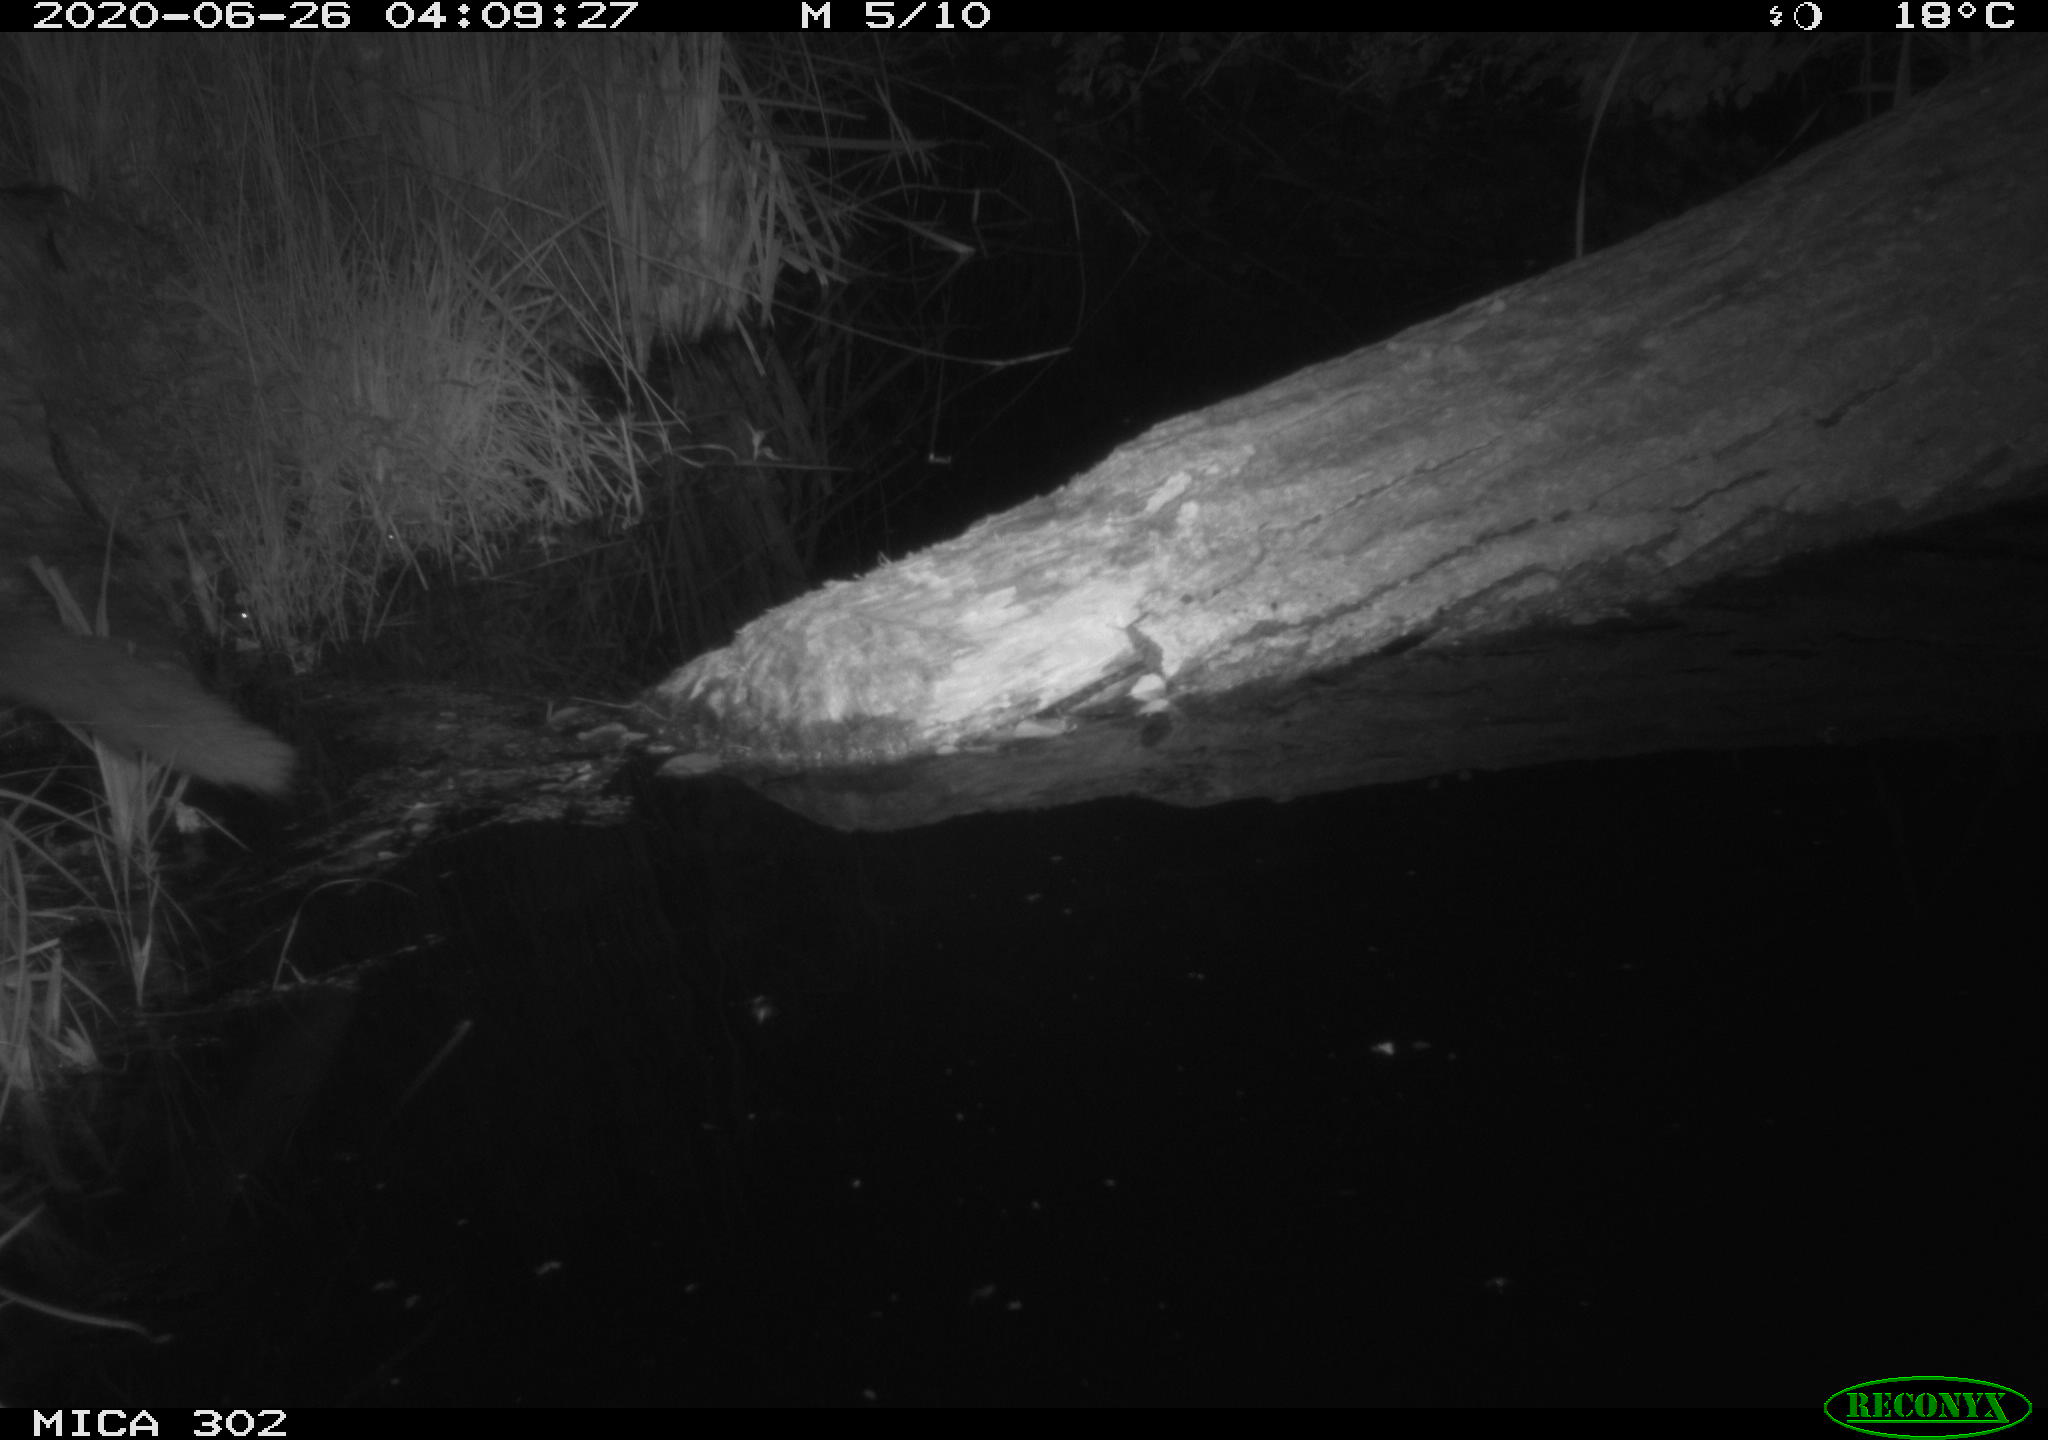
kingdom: Animalia
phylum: Chordata
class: Mammalia
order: Carnivora
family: Canidae
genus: Vulpes
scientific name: Vulpes vulpes
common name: Red fox
